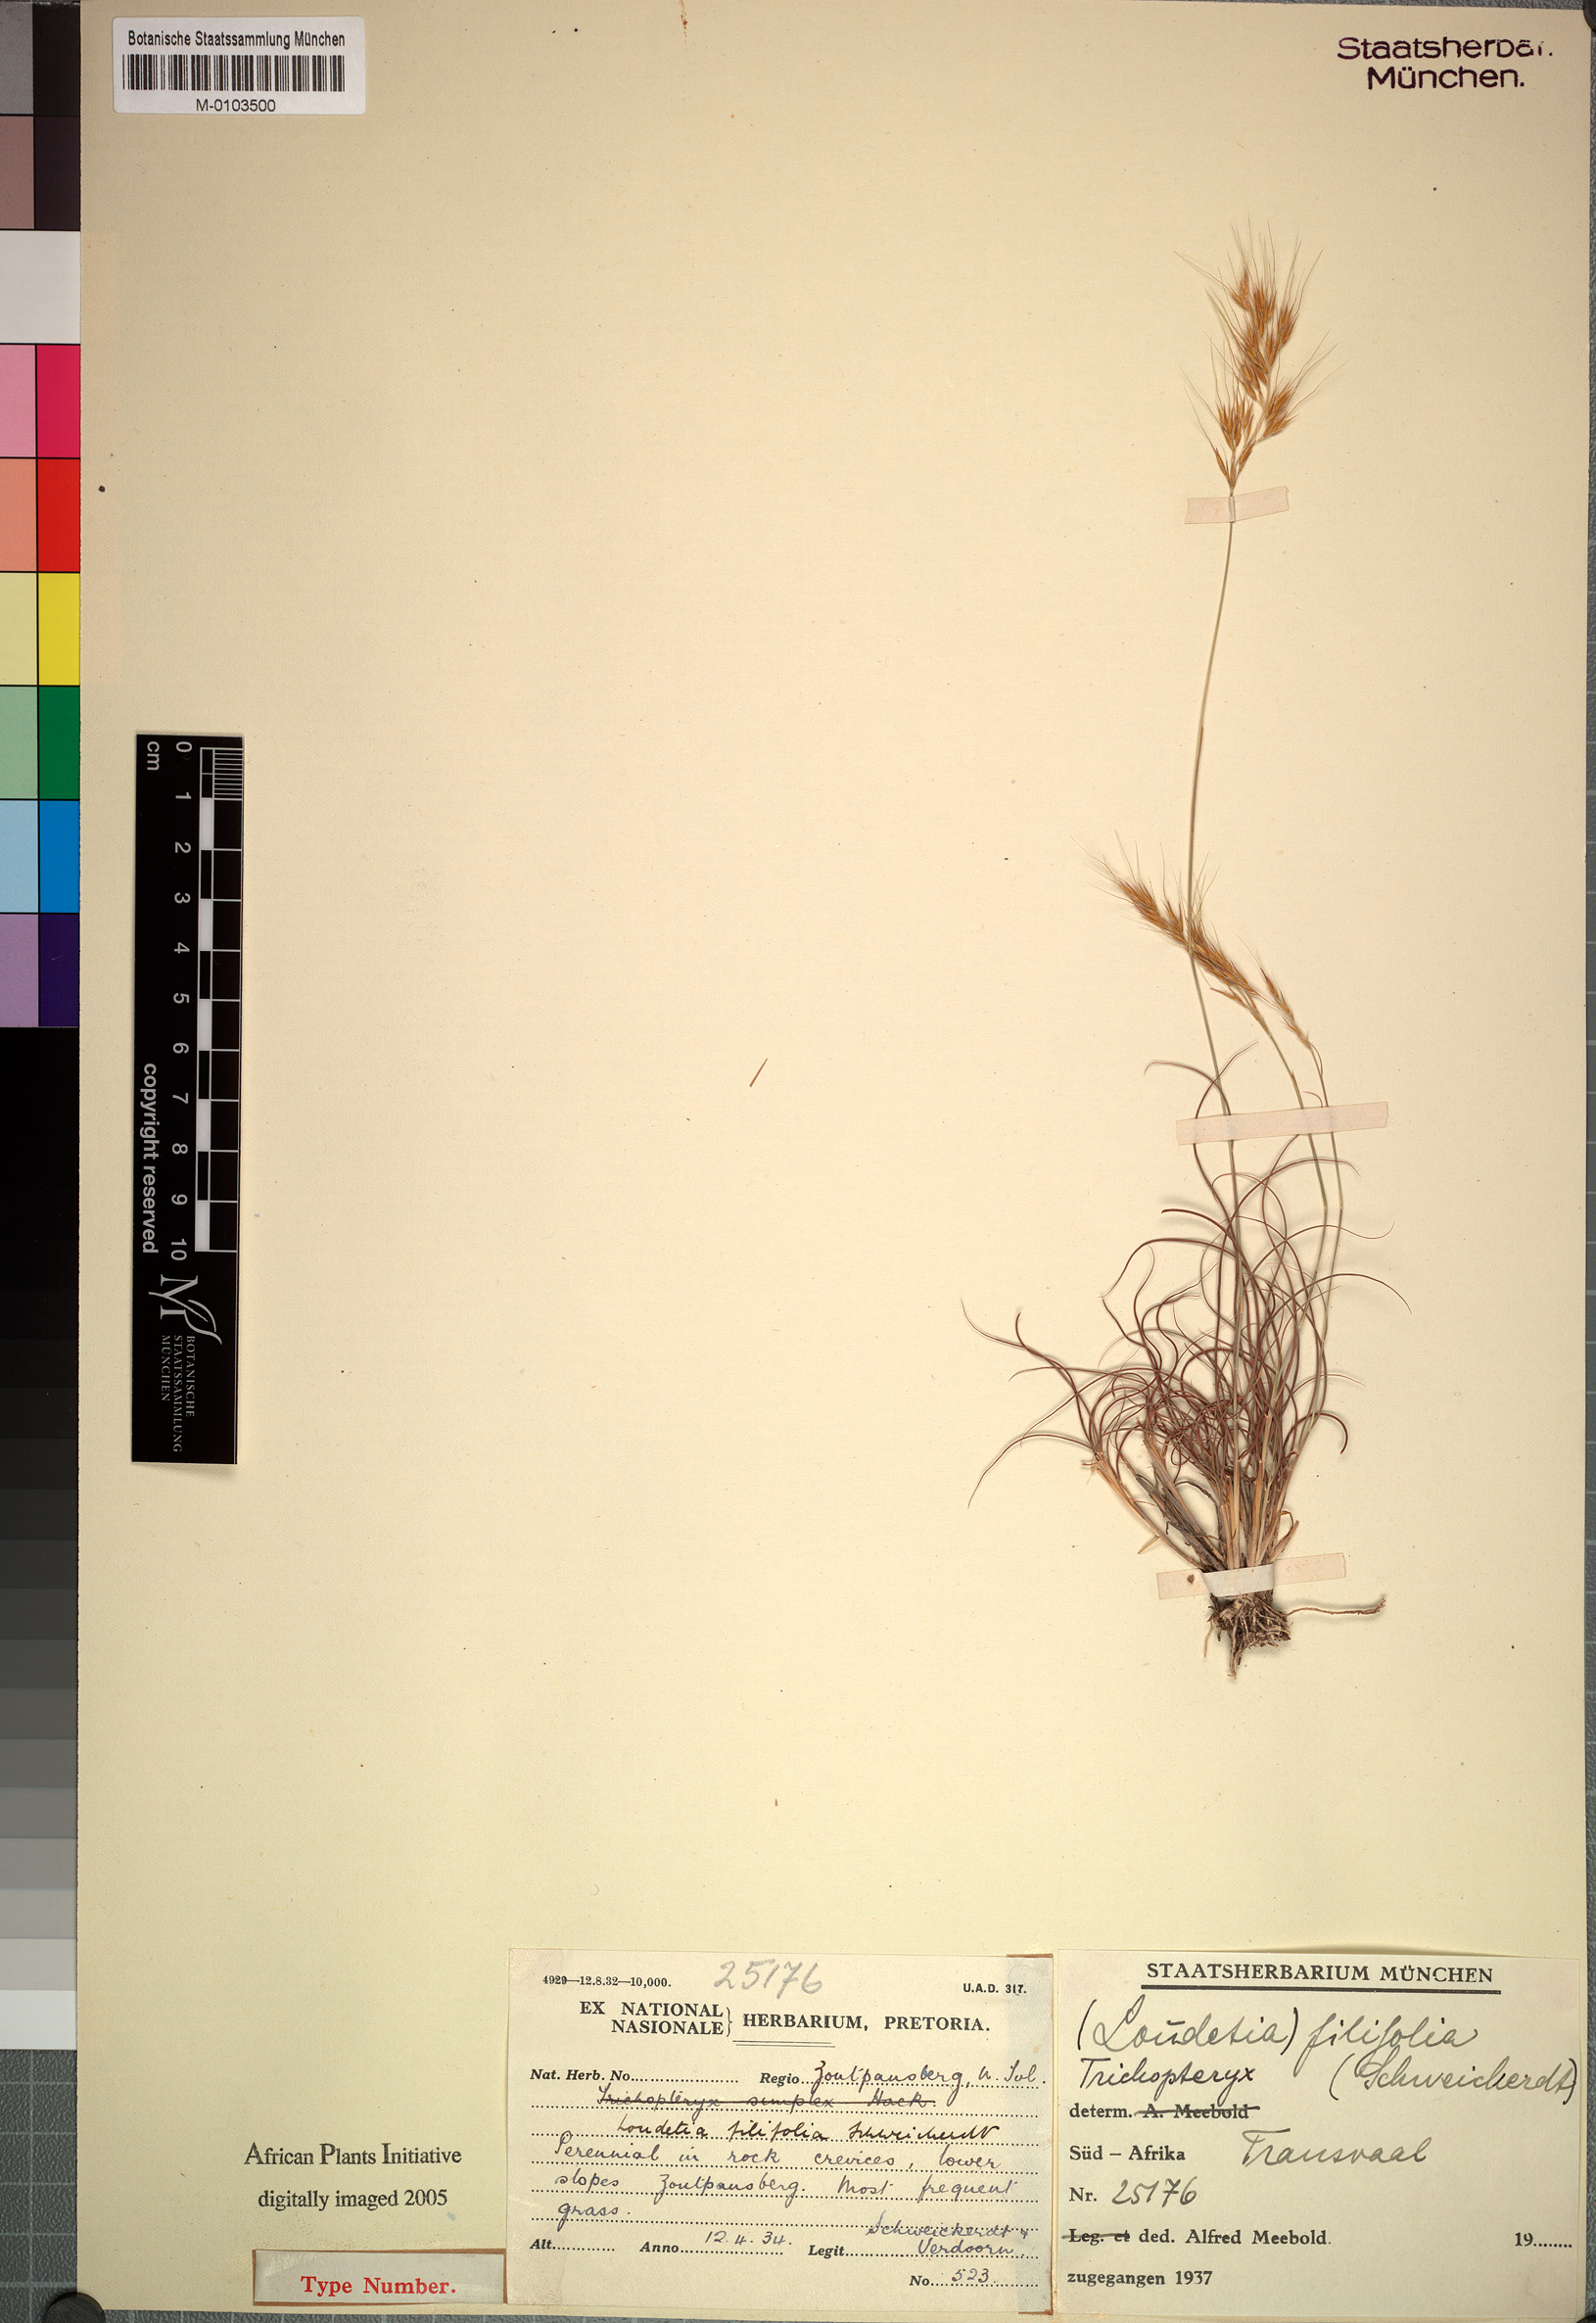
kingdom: Plantae
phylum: Tracheophyta
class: Liliopsida
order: Poales
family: Poaceae
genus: Loudetia
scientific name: Loudetia kagerensis
